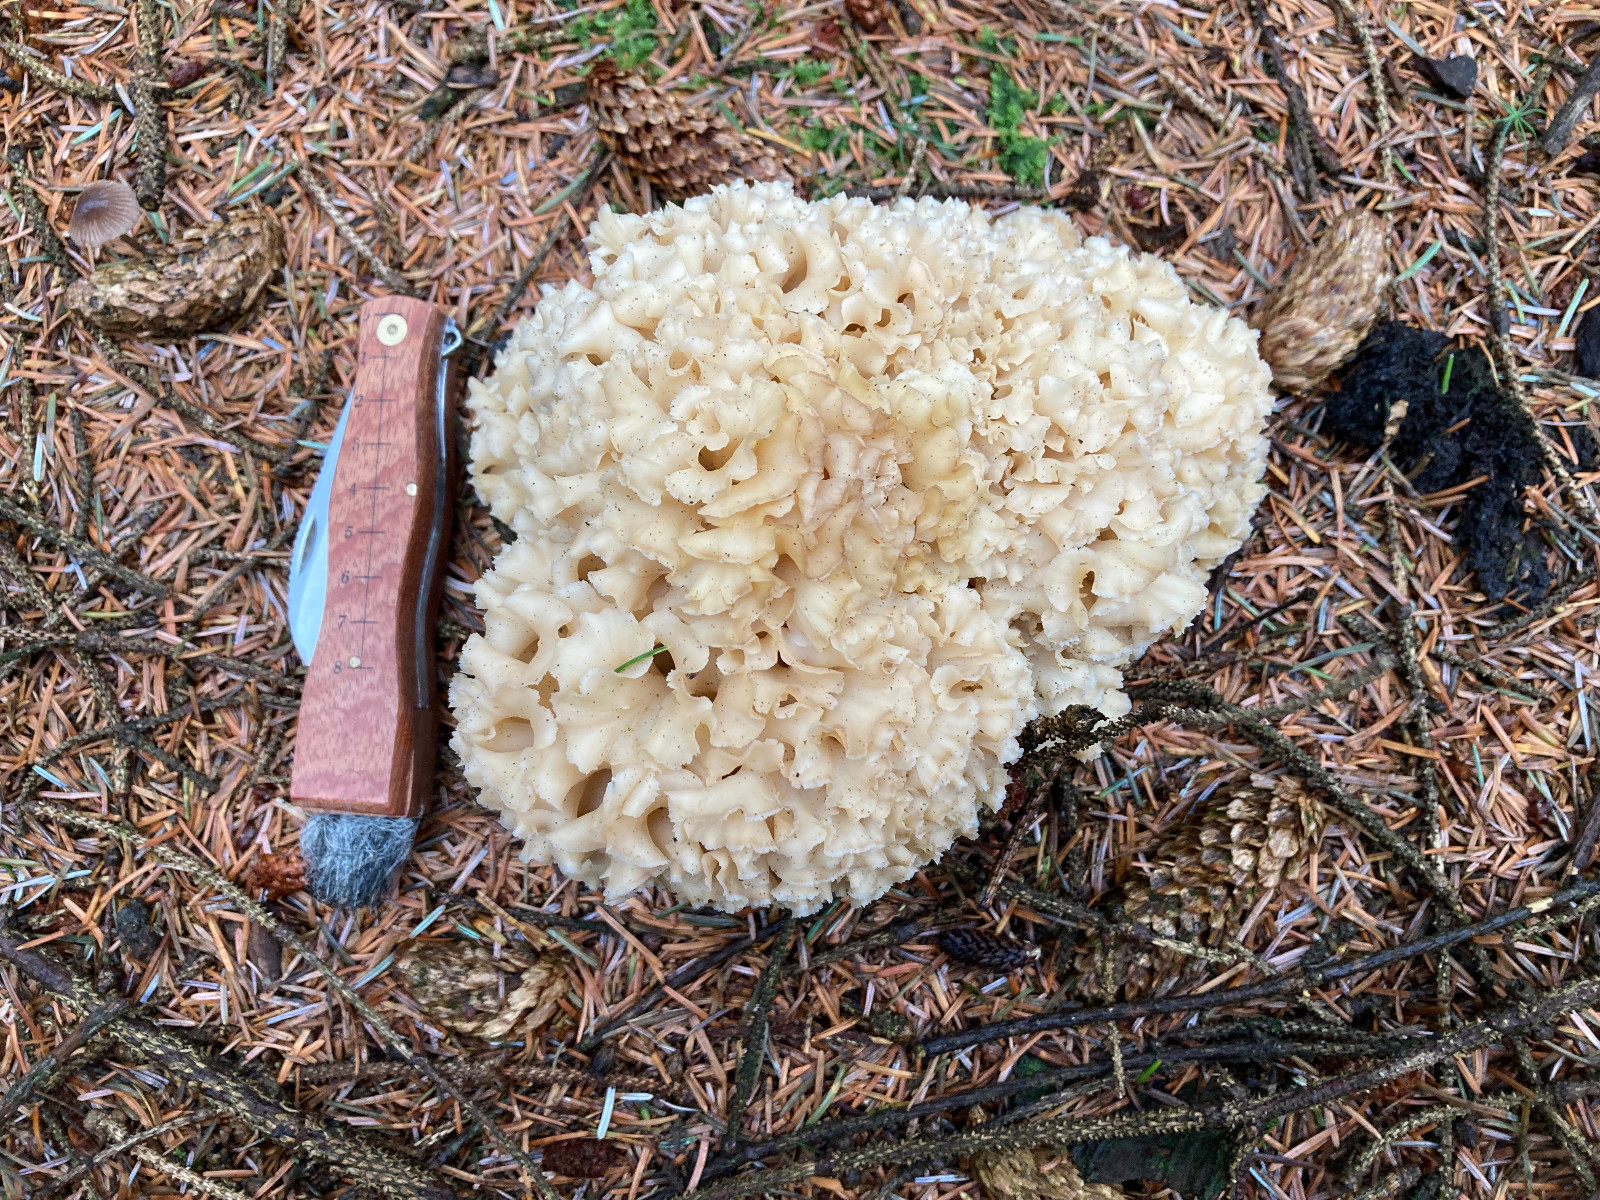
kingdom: Fungi
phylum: Basidiomycota
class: Agaricomycetes
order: Polyporales
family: Sparassidaceae
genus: Sparassis
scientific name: Sparassis crispa
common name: kruset blomkålssvamp
